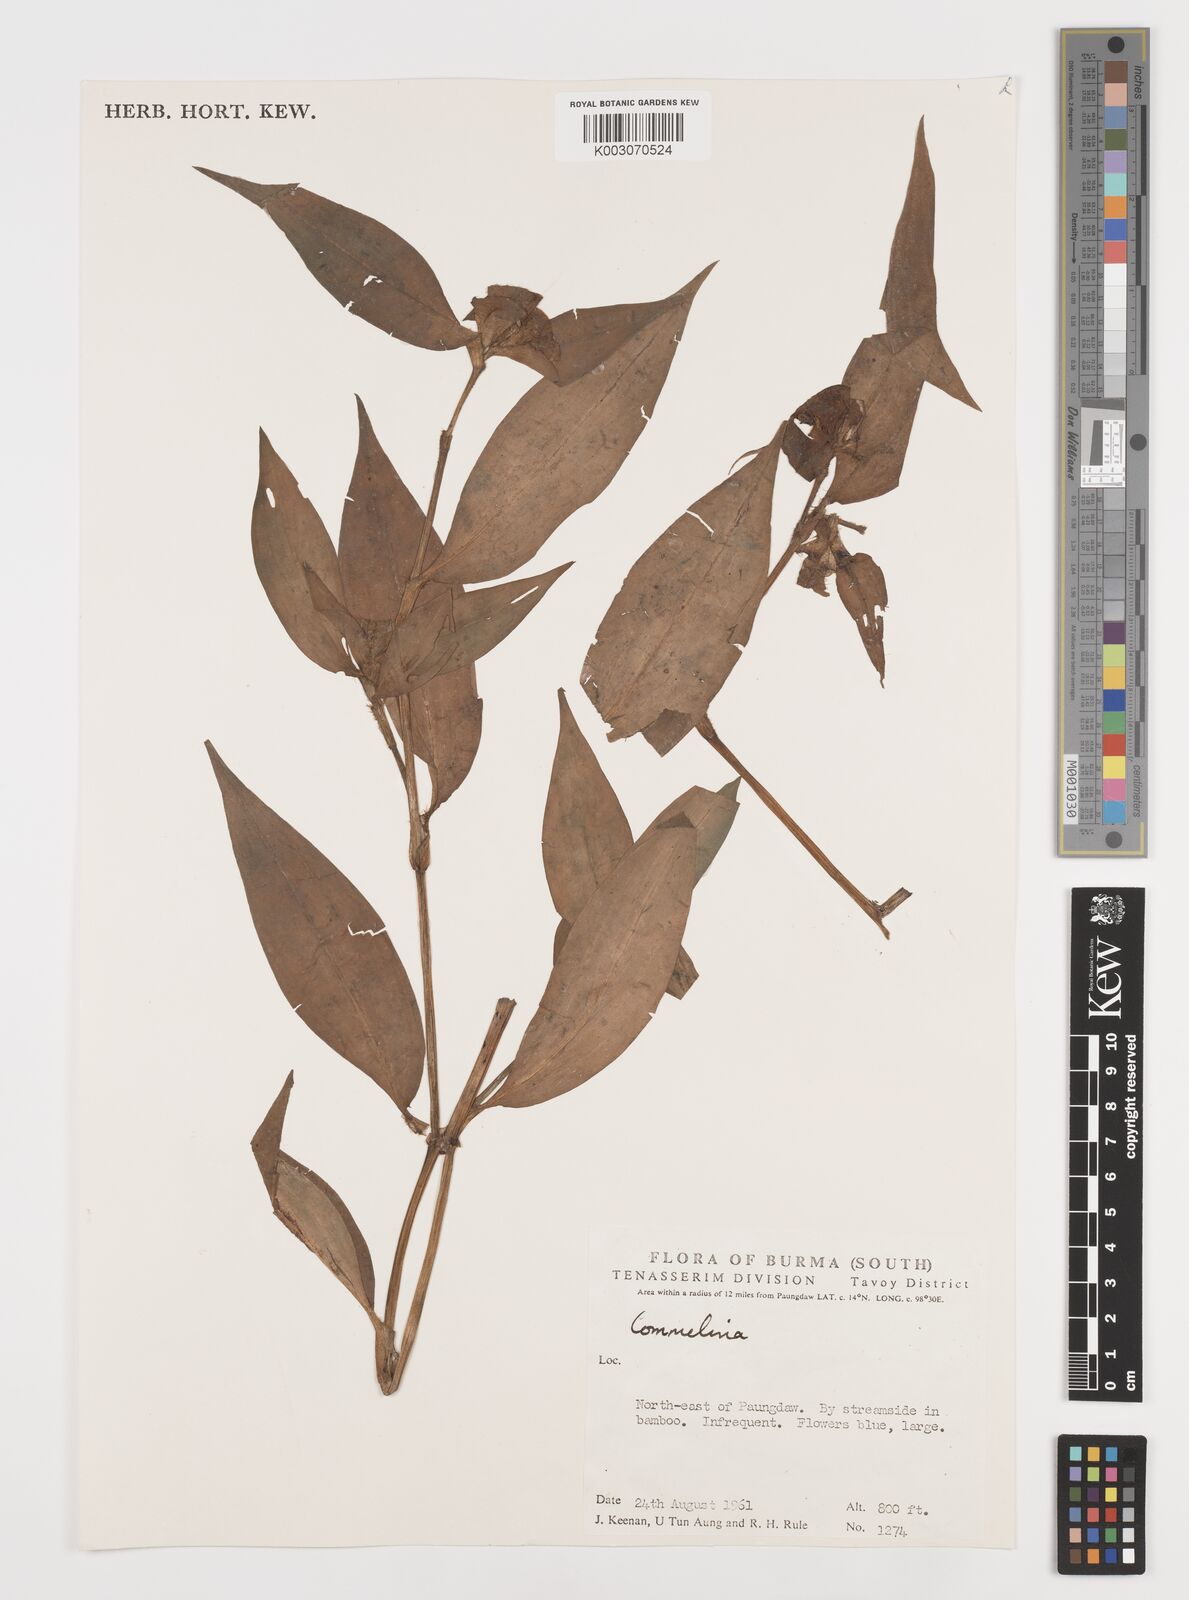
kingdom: Plantae
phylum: Tracheophyta
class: Liliopsida
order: Commelinales
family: Commelinaceae
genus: Commelina
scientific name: Commelina
